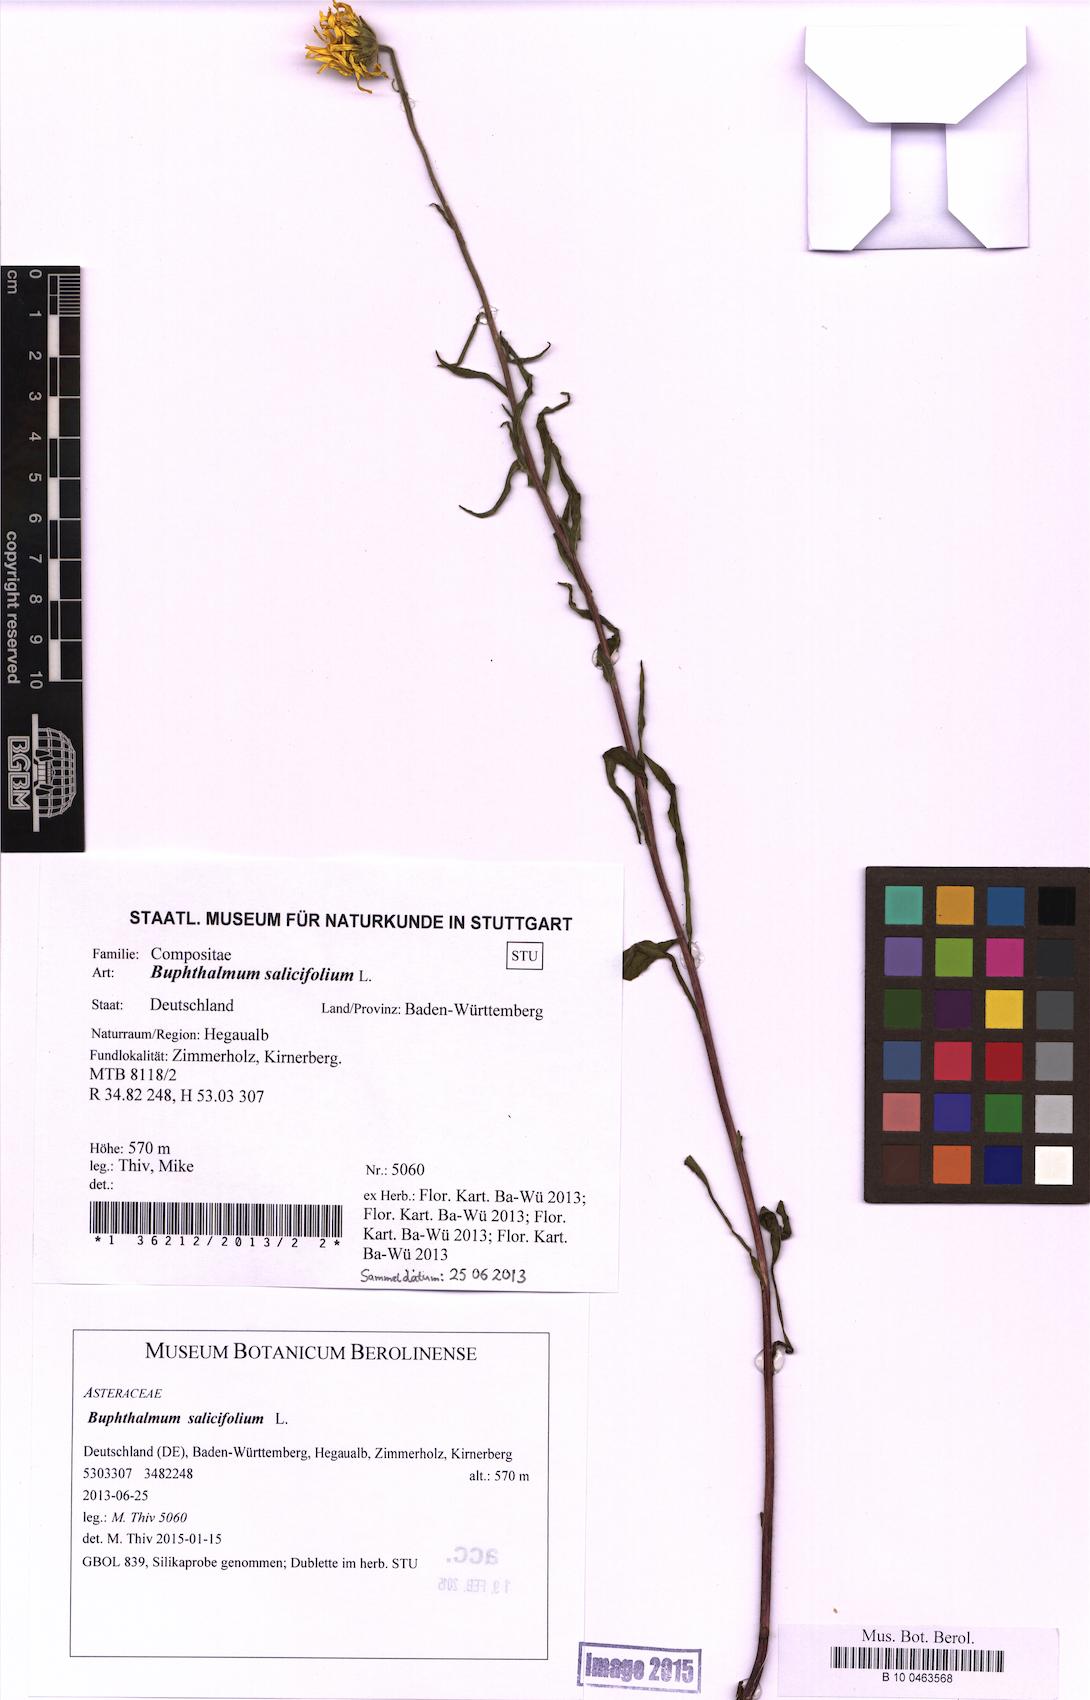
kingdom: Plantae
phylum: Tracheophyta
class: Magnoliopsida
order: Asterales
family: Asteraceae
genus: Buphthalmum
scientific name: Buphthalmum salicifolium
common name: Willow-leaved yellow-oxeye
